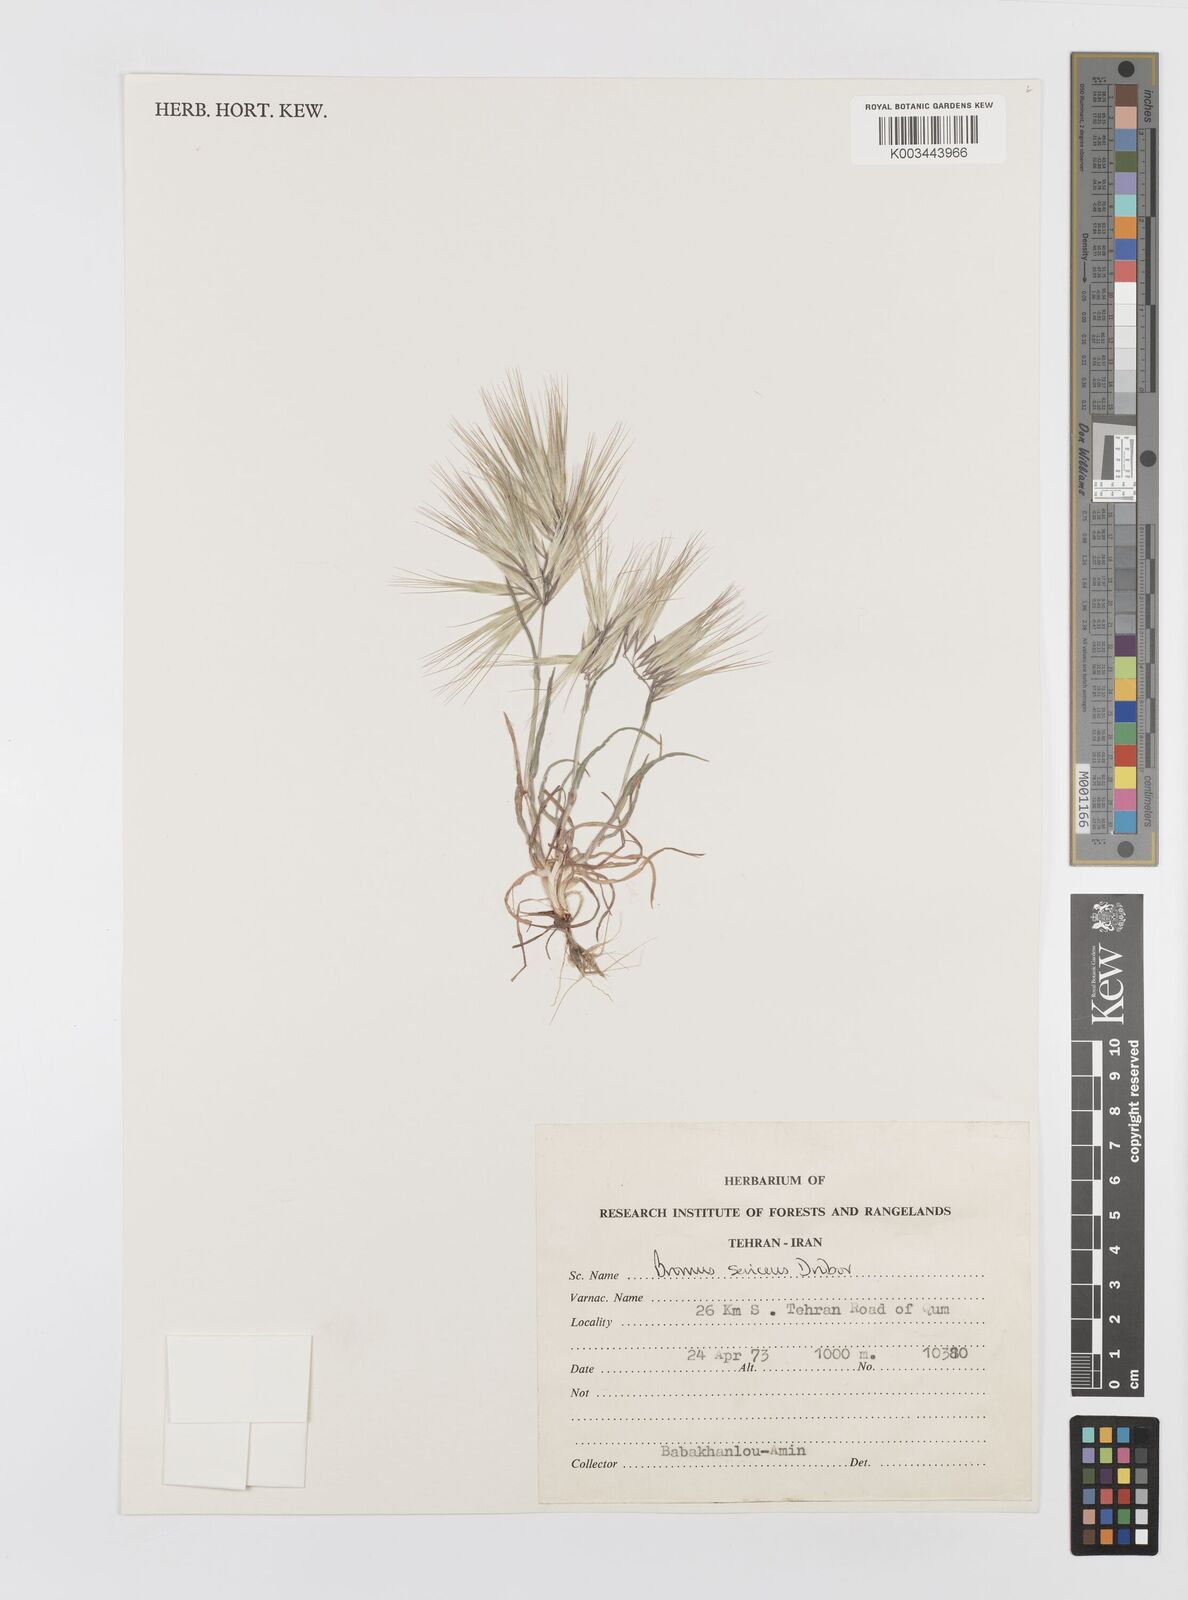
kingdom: Plantae
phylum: Tracheophyta
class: Liliopsida
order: Poales
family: Poaceae
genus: Bromus
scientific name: Bromus moeszii
